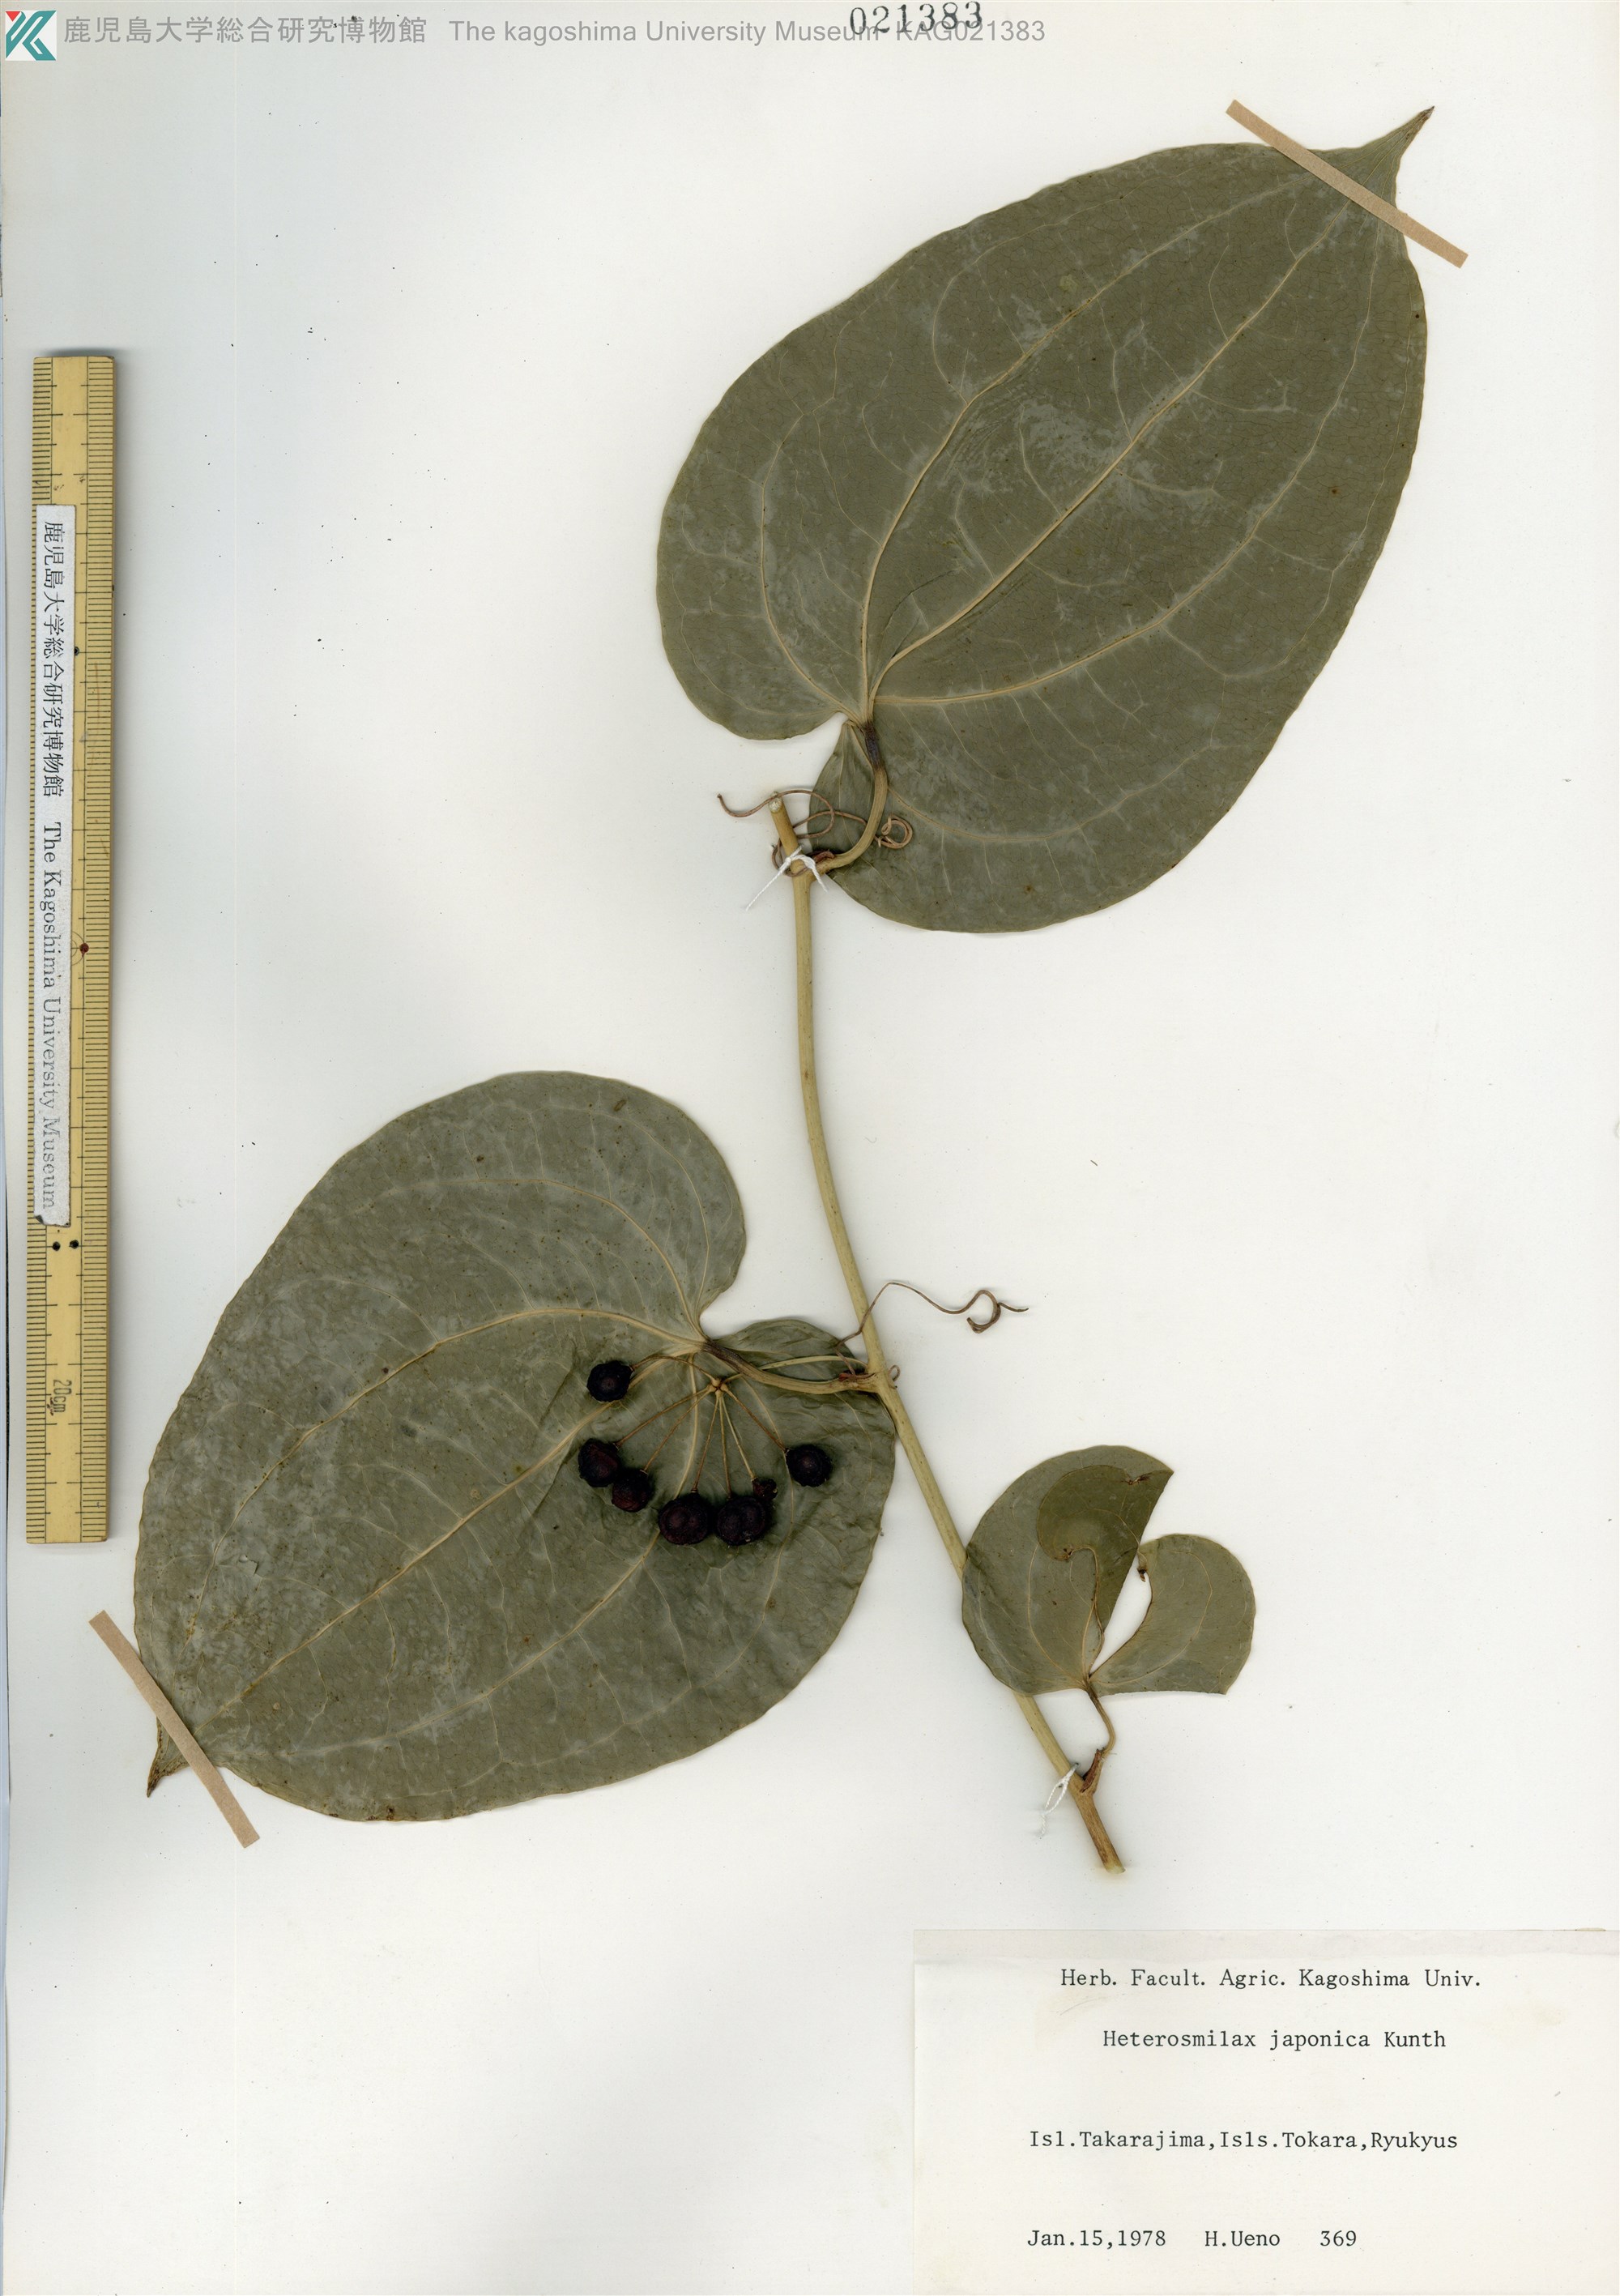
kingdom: Plantae
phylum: Tracheophyta
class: Liliopsida
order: Liliales
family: Smilacaceae
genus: Smilax
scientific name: Smilax insularis
